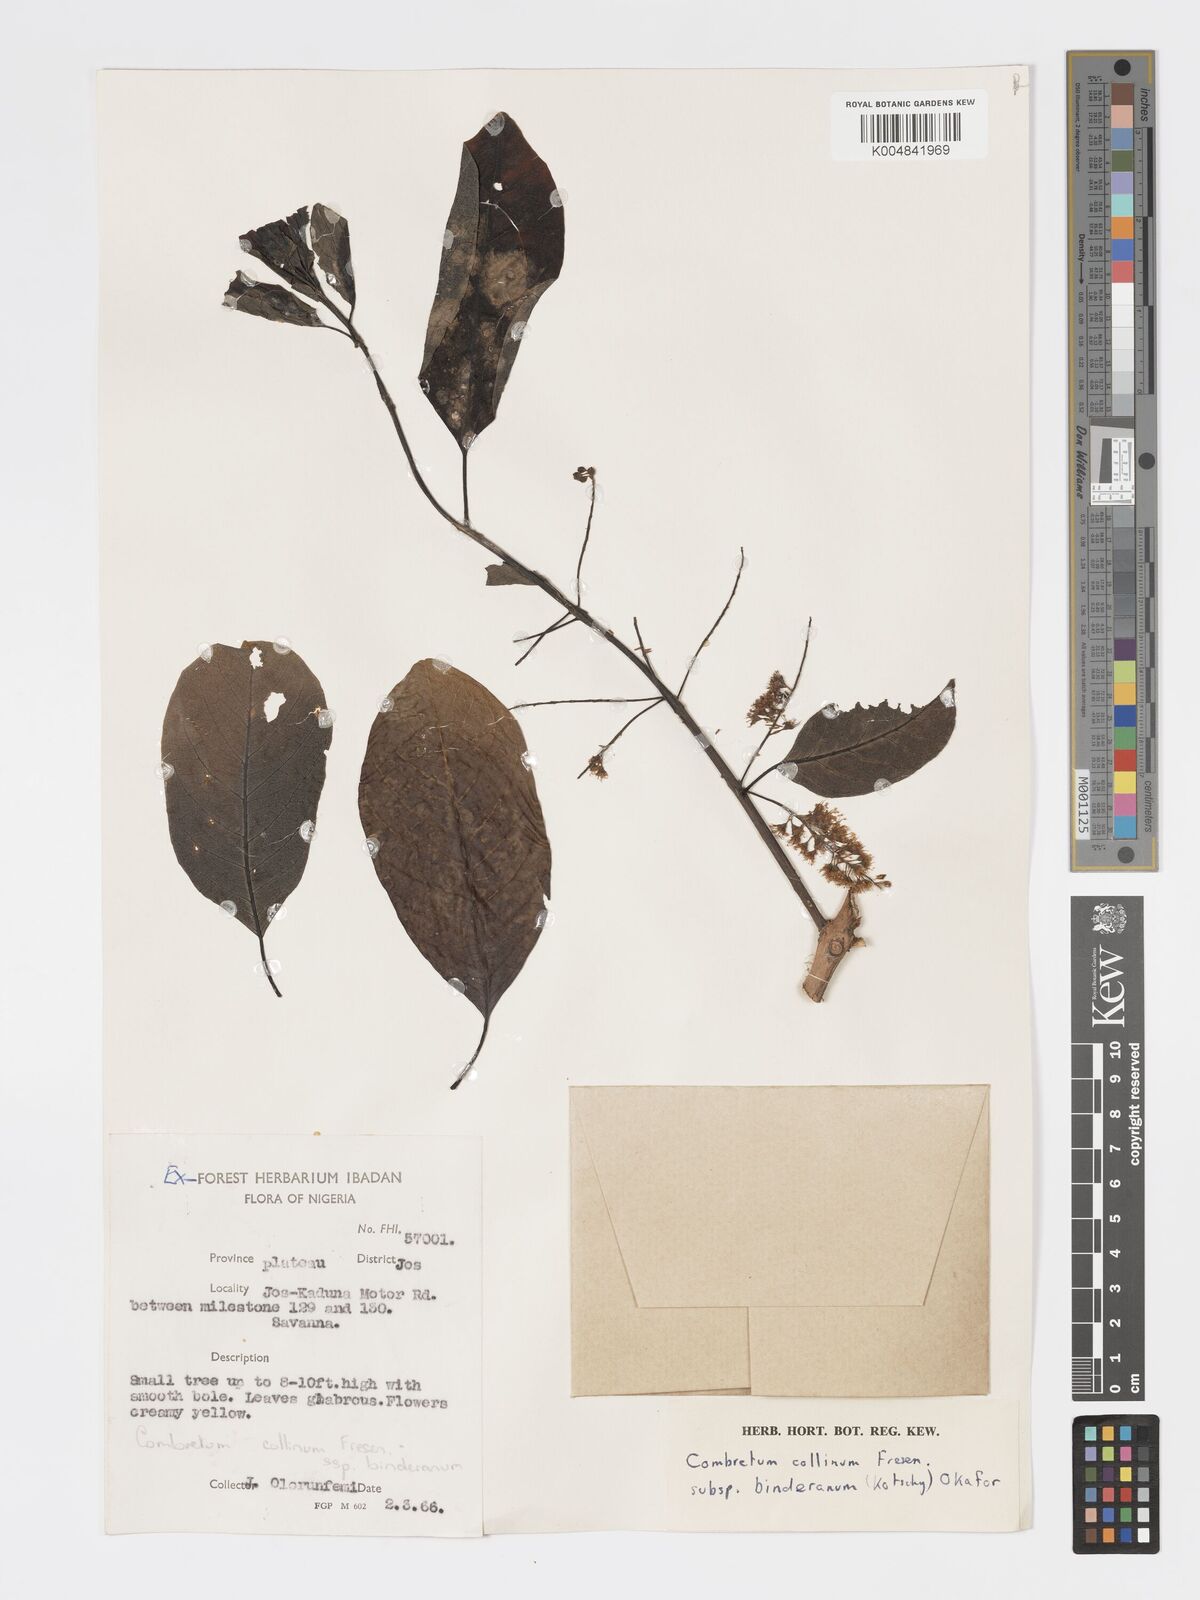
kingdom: Plantae
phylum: Tracheophyta
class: Magnoliopsida
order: Myrtales
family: Combretaceae
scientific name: Combretaceae
